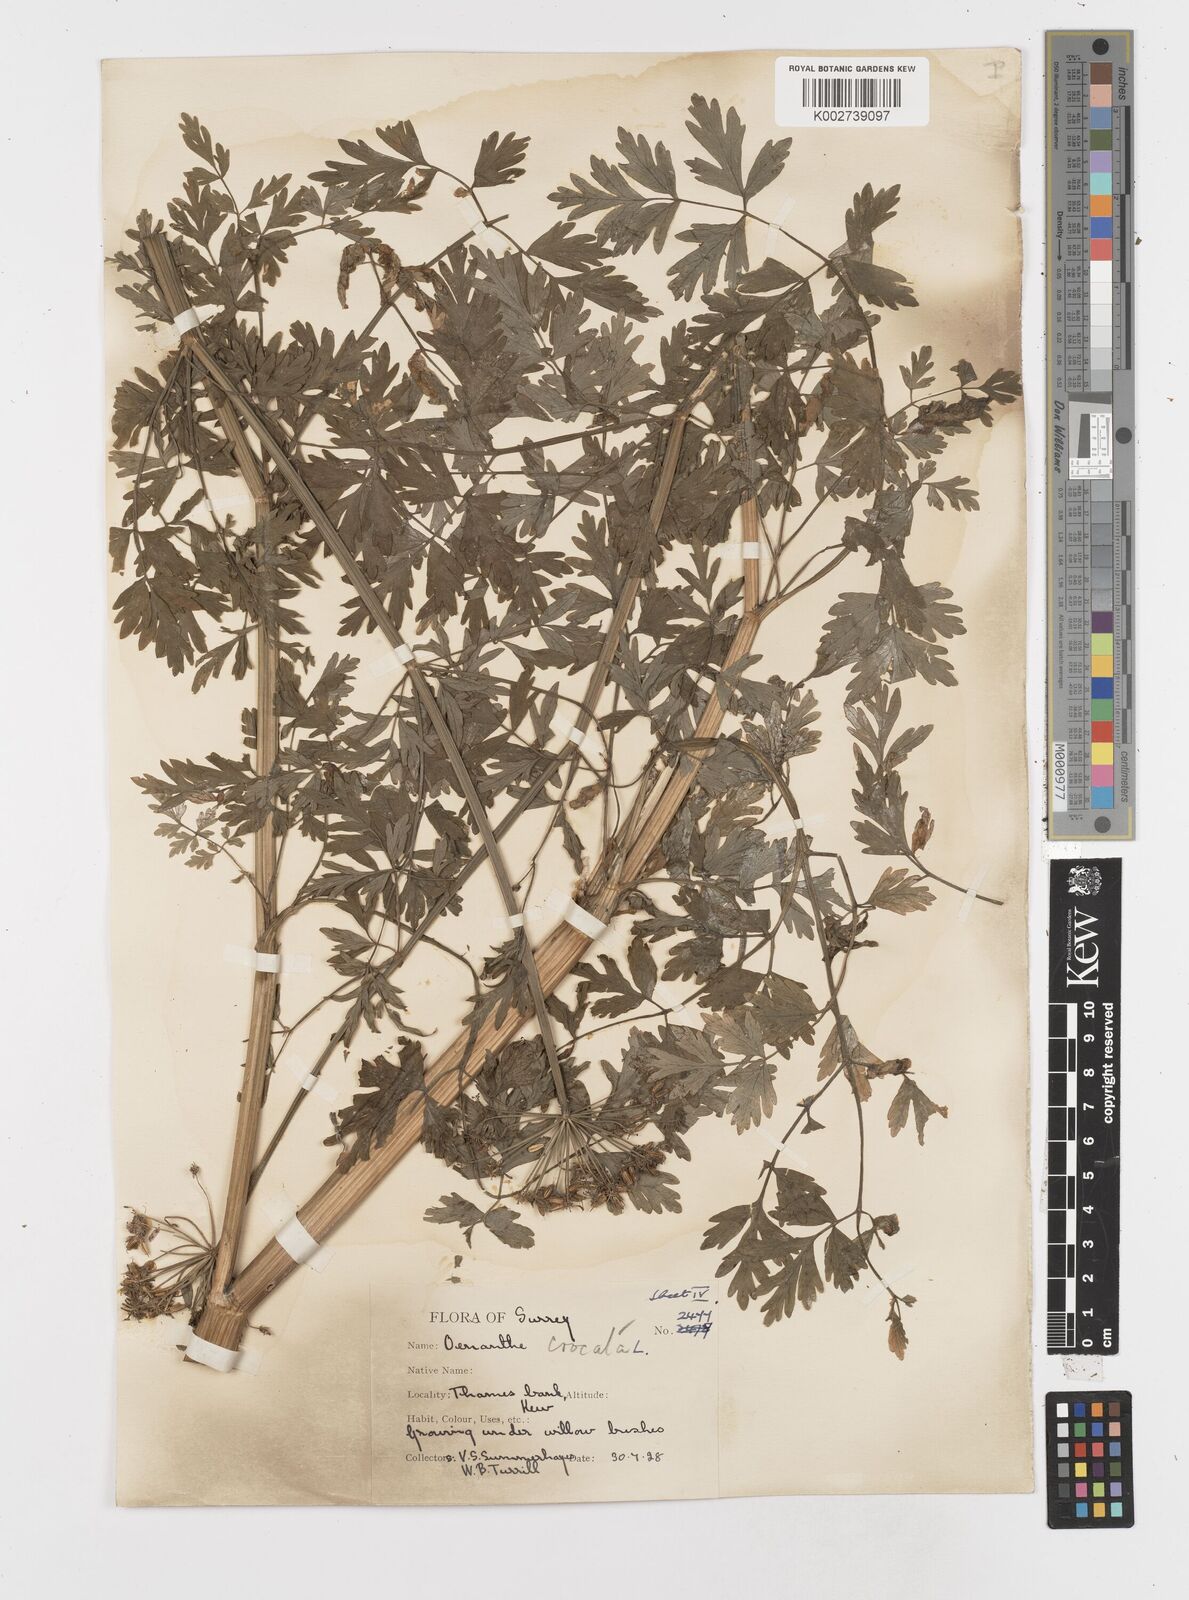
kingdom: Plantae
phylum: Tracheophyta
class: Magnoliopsida
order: Apiales
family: Apiaceae
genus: Oenanthe
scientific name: Oenanthe crocata
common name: Hemlock water-dropwort
